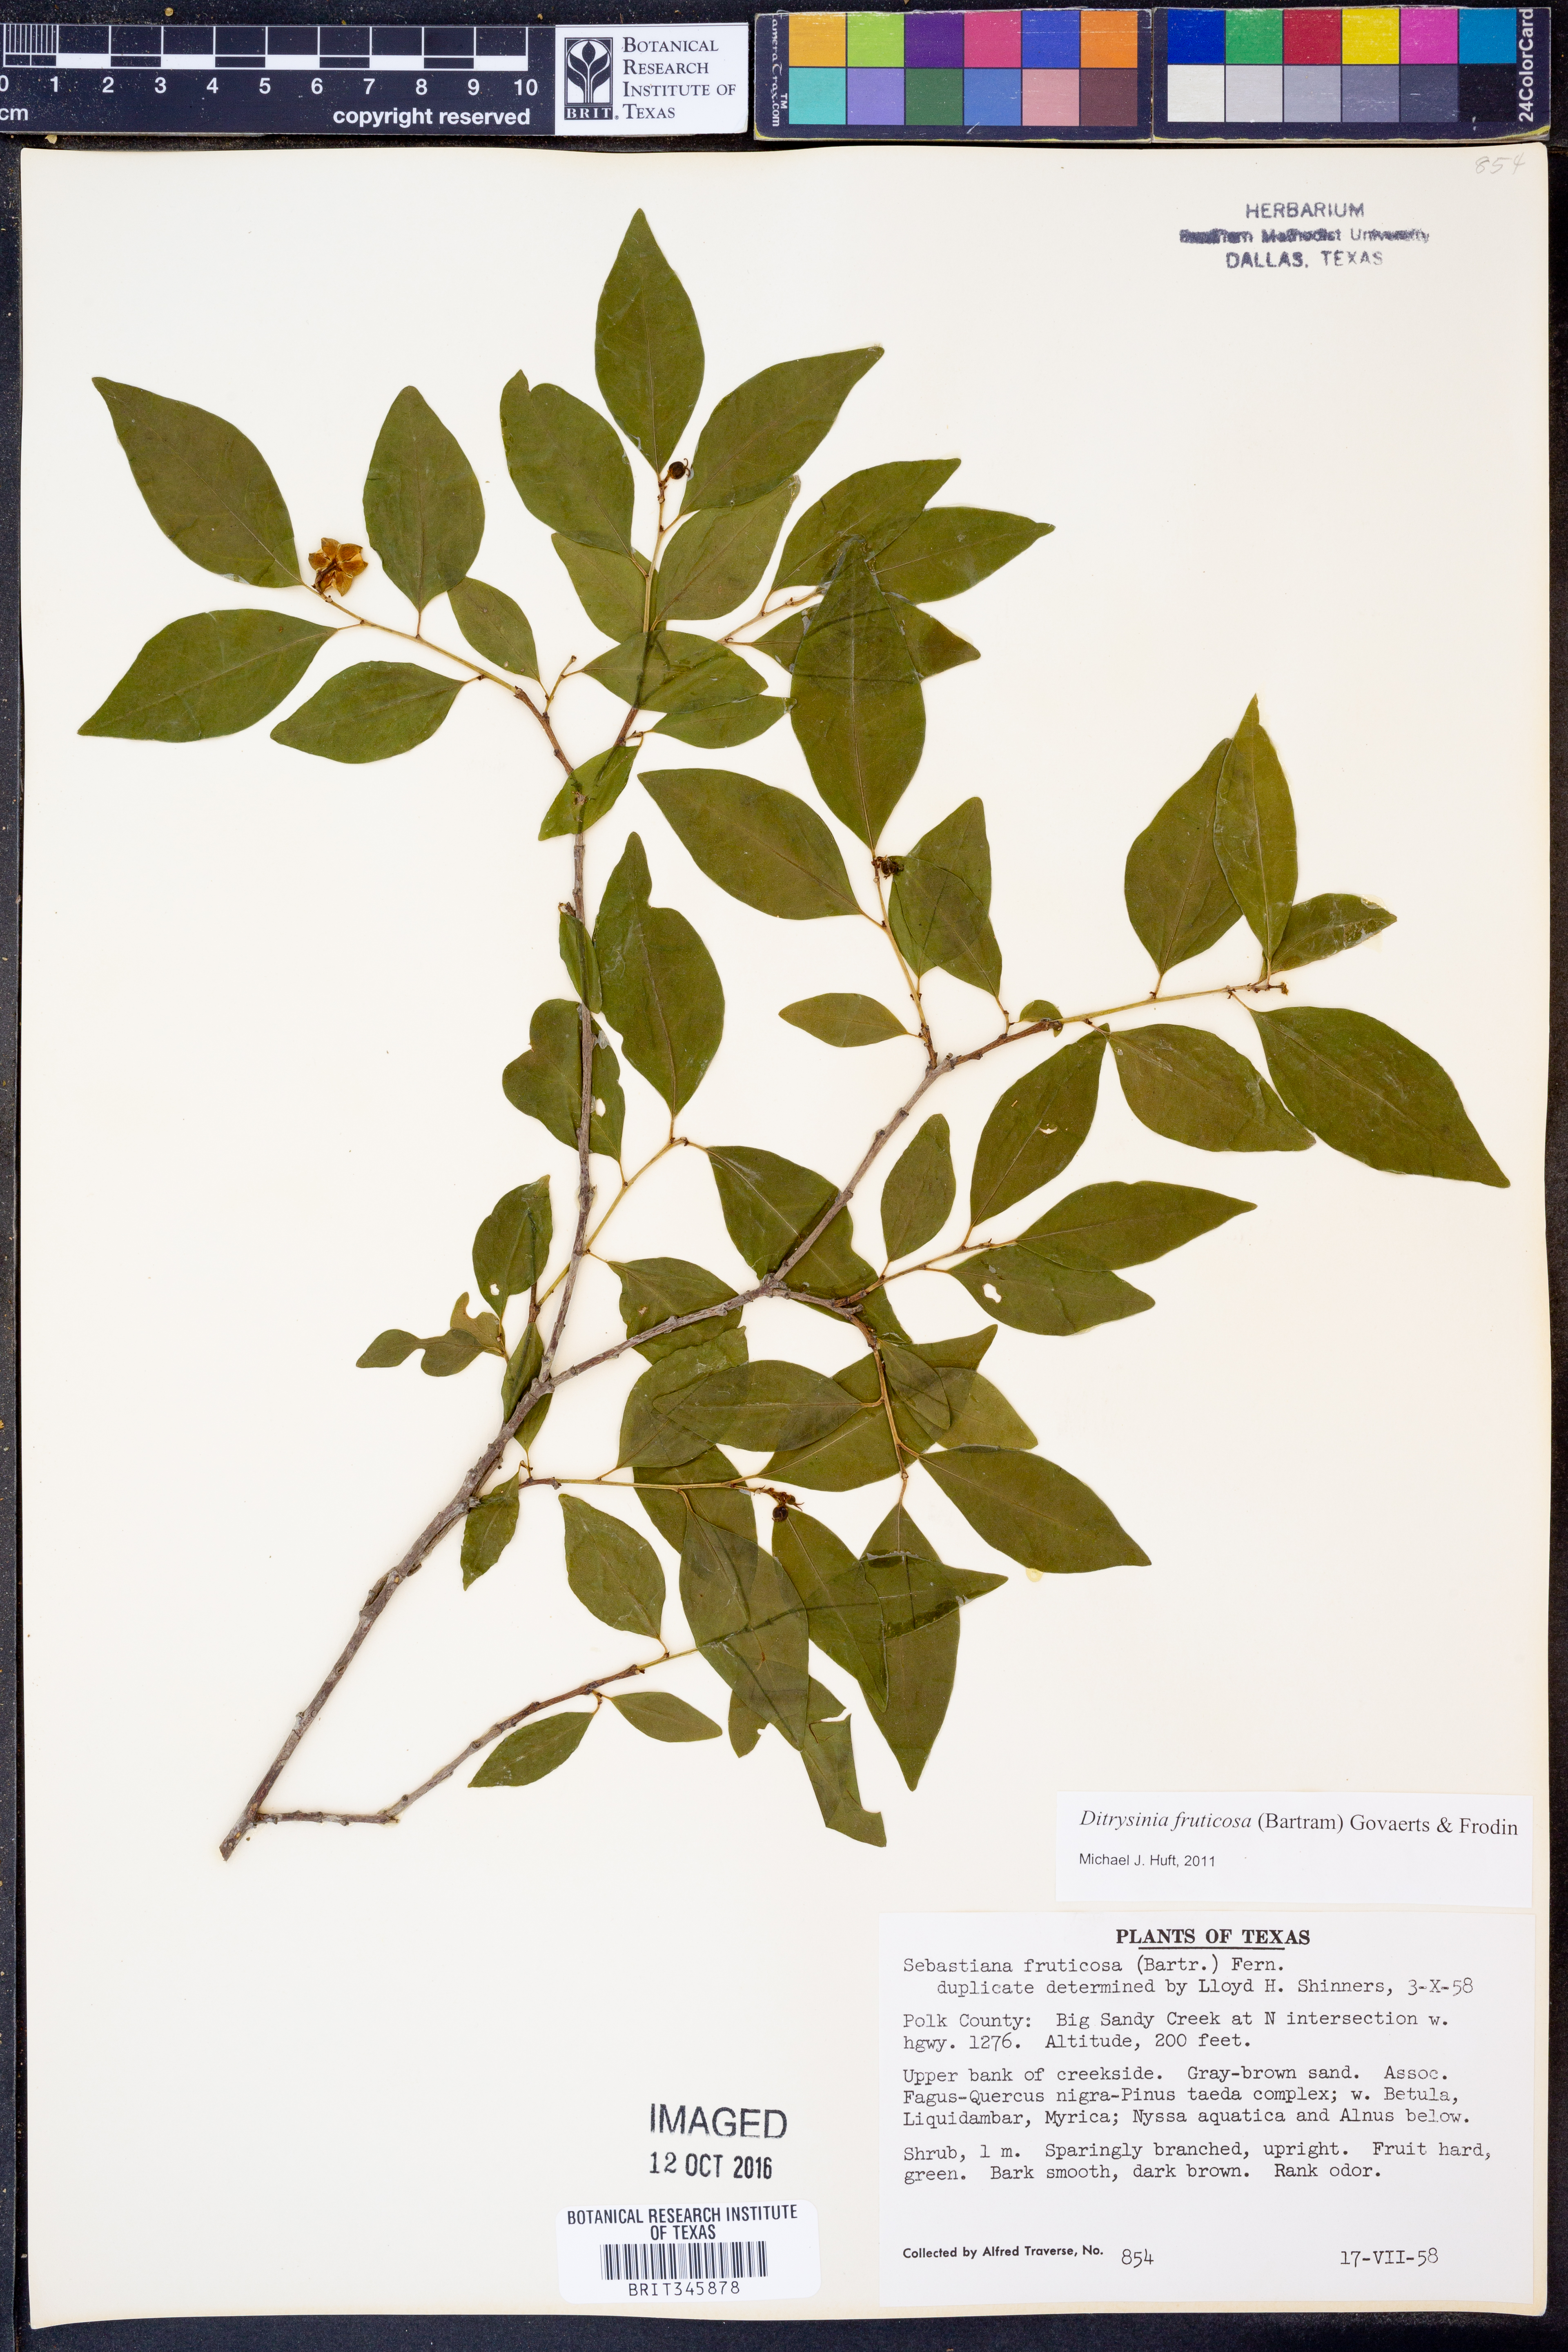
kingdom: Plantae
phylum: Tracheophyta
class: Magnoliopsida
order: Malpighiales
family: Euphorbiaceae
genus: Ditrysinia
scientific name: Ditrysinia fruticosa
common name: Gulf sebastian-bush
